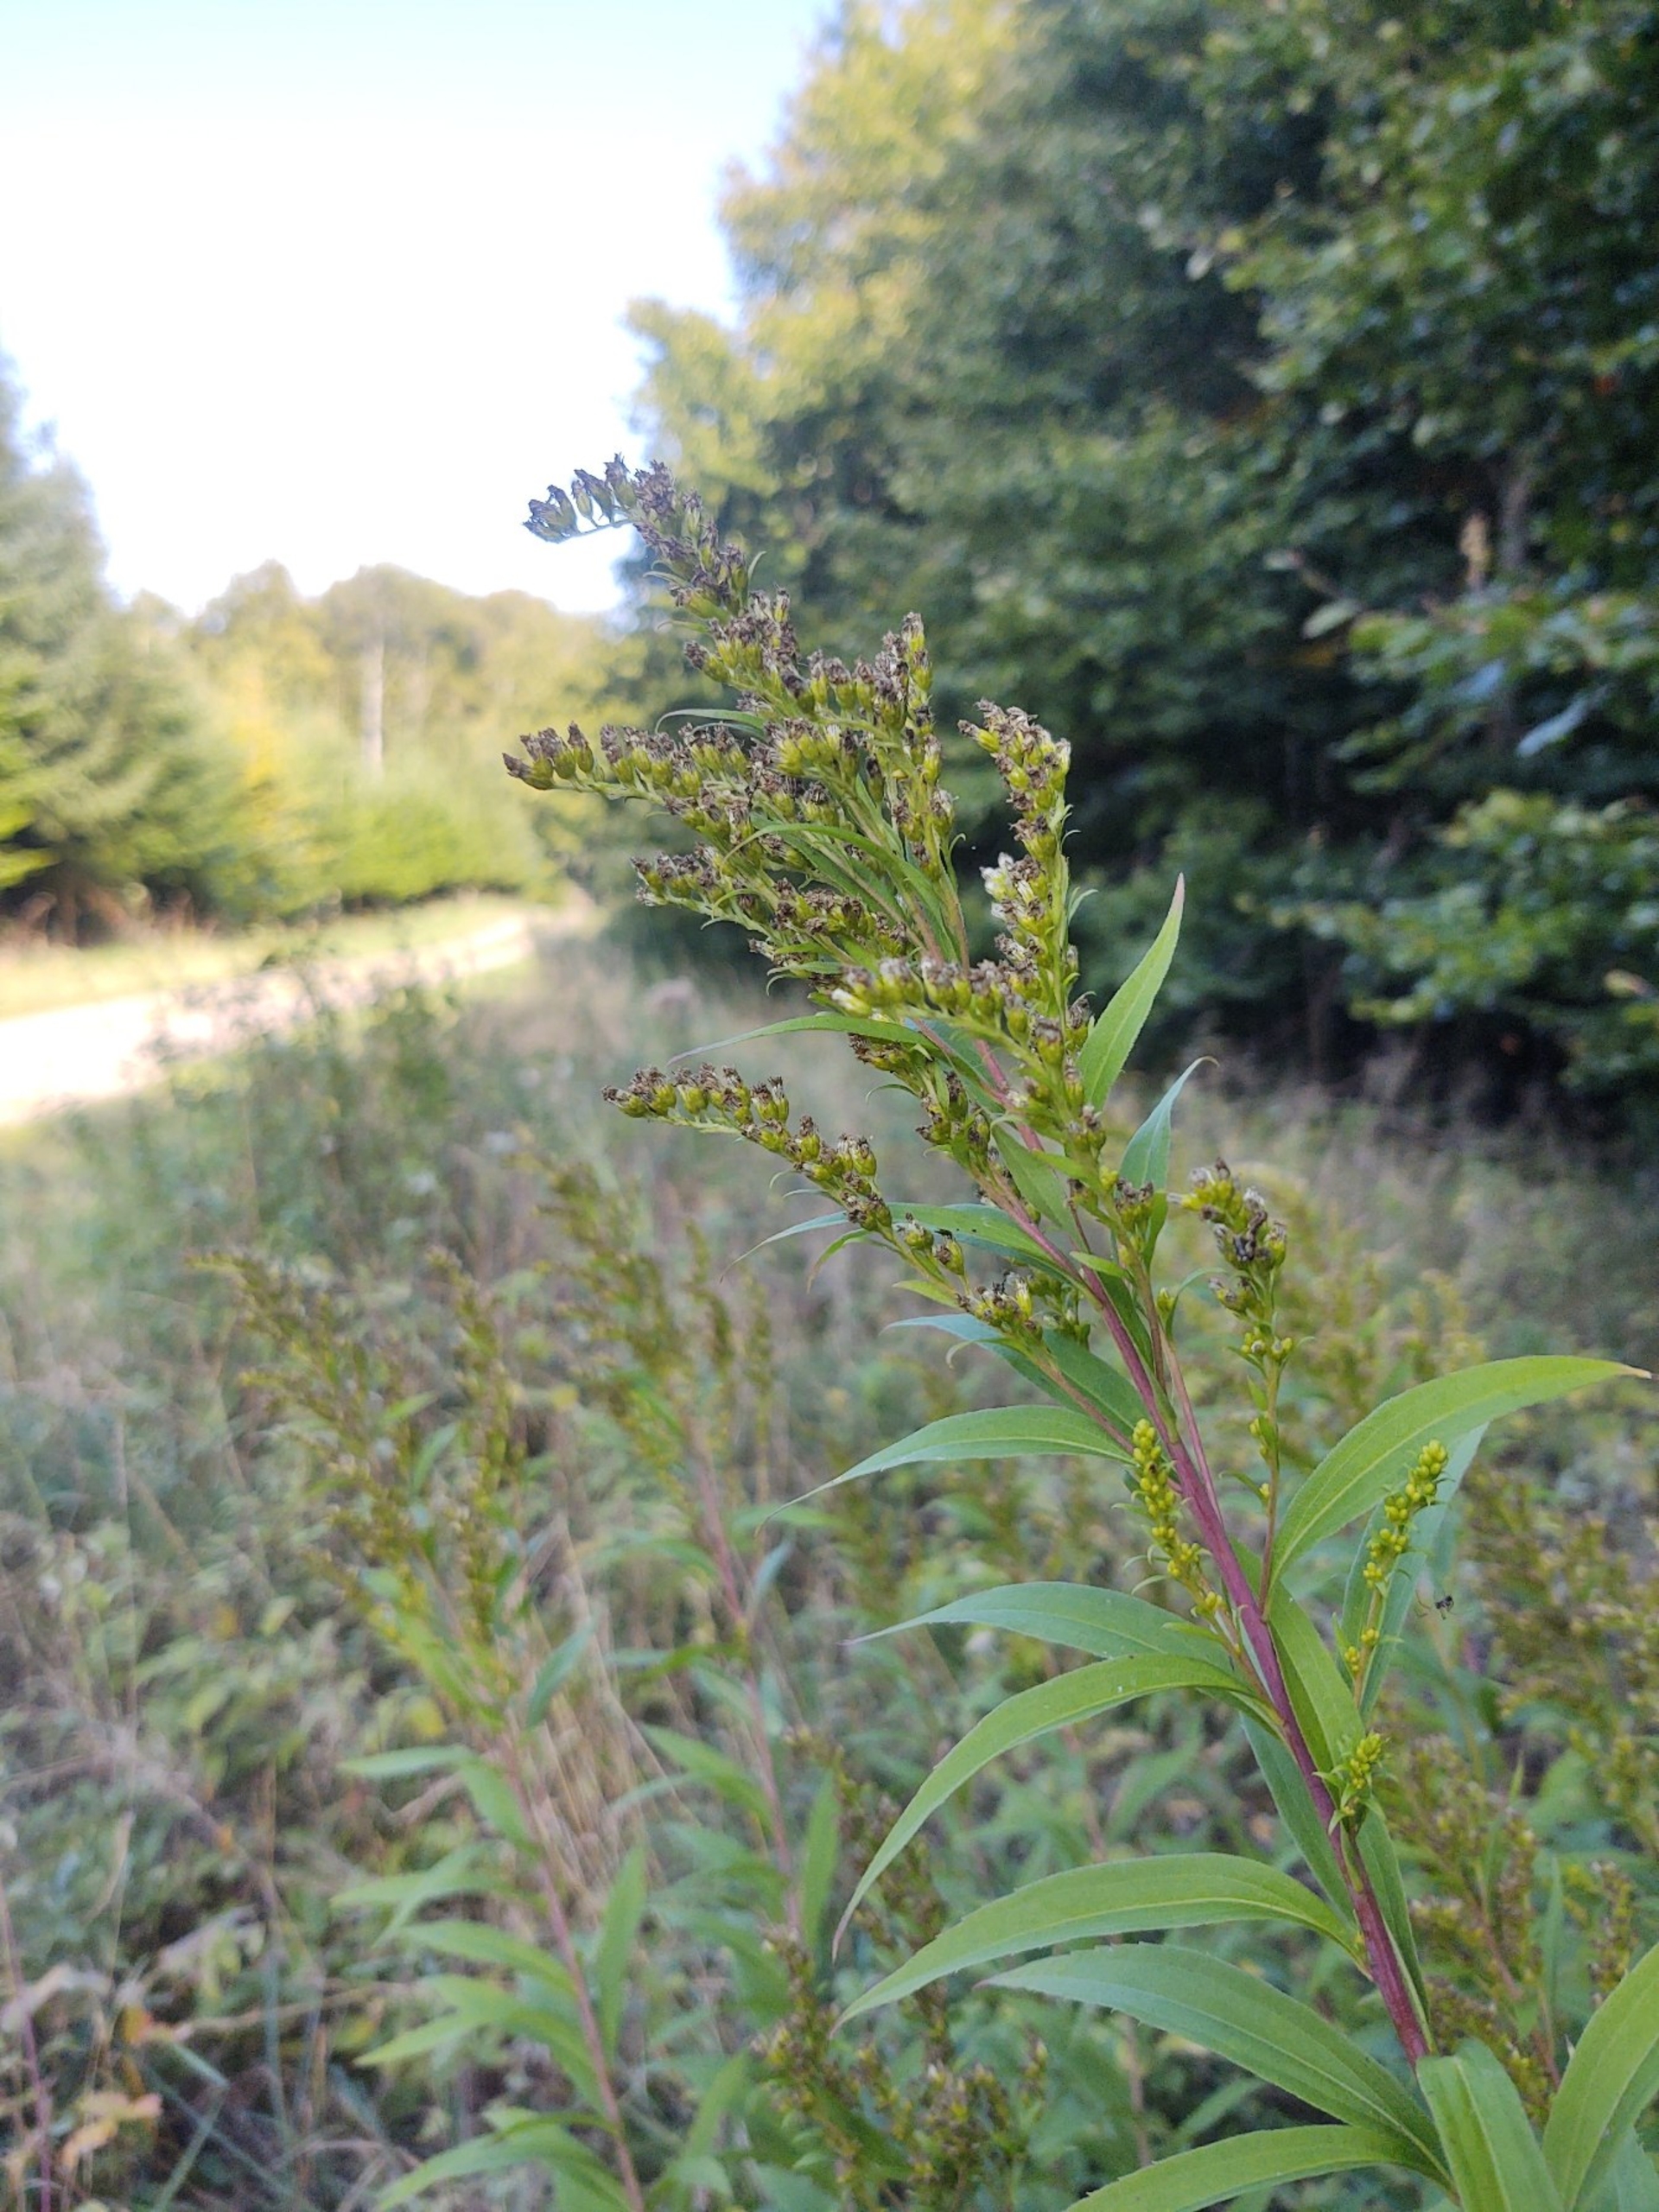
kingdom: Plantae
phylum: Tracheophyta
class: Magnoliopsida
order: Asterales
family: Asteraceae
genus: Solidago
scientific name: Solidago canadensis
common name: Kanadisk gyldenris
